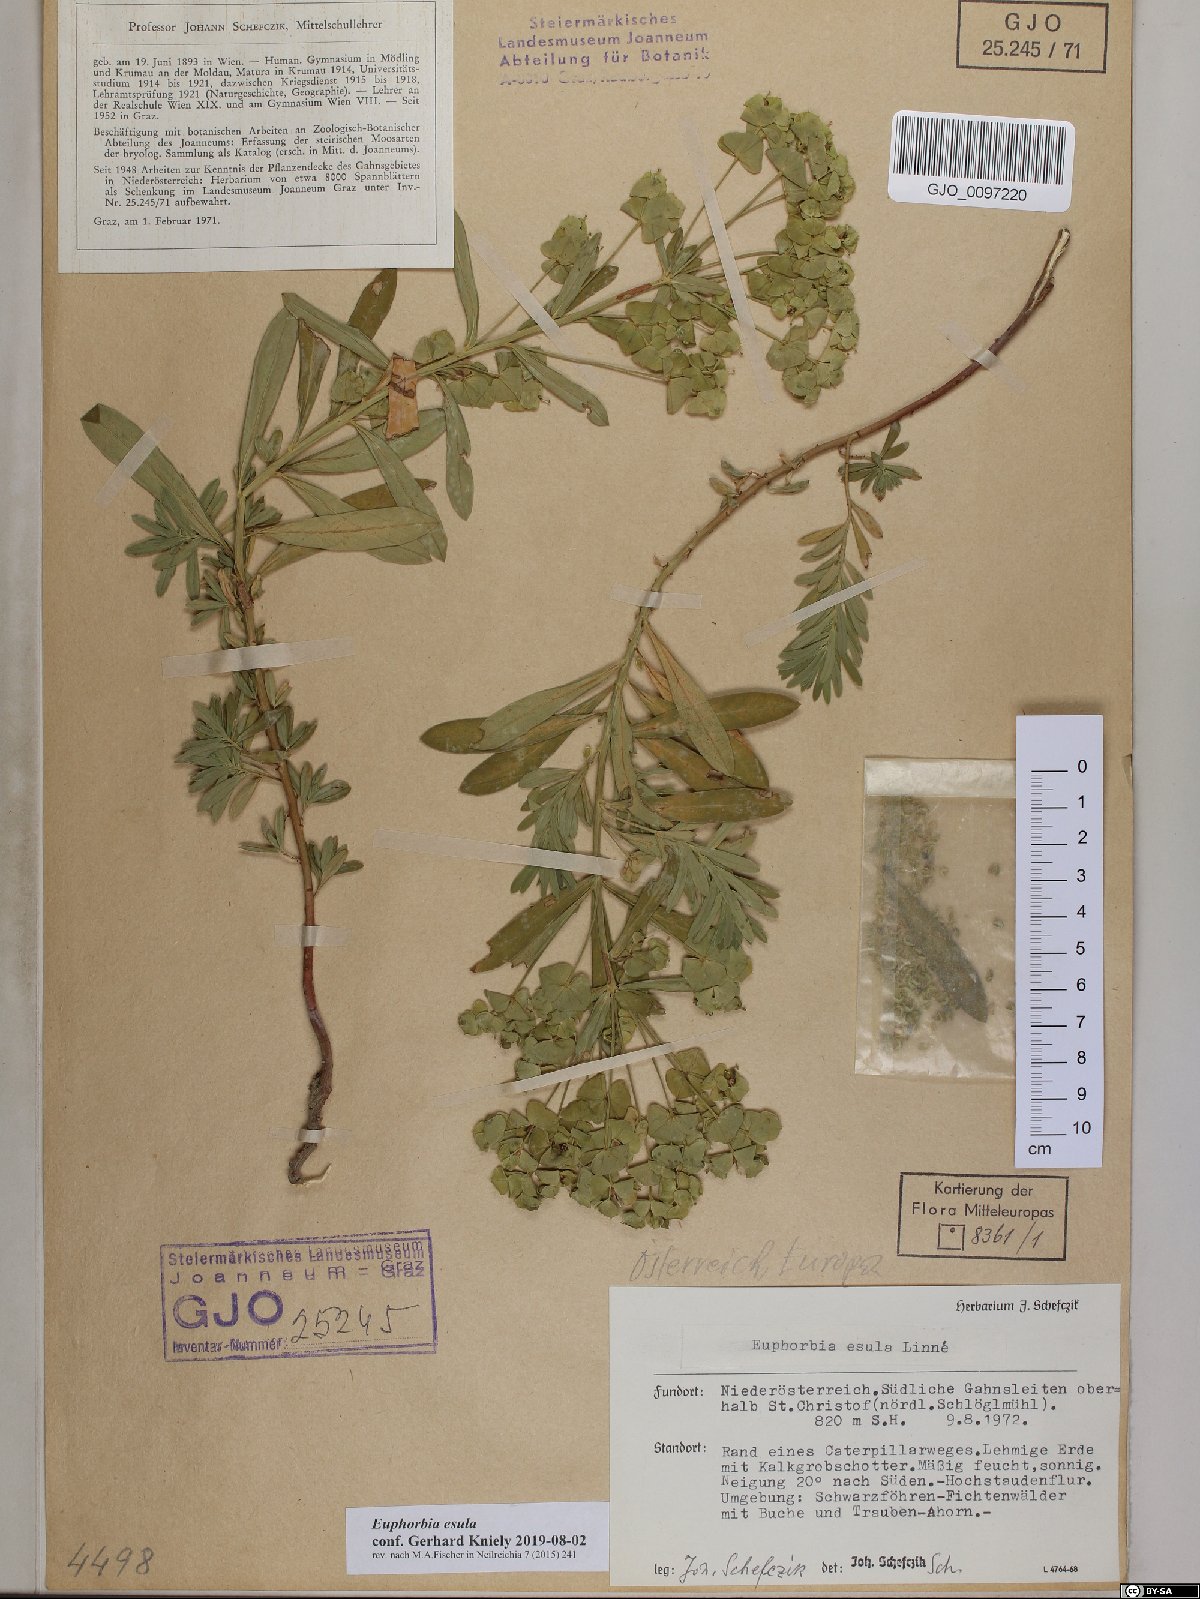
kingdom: Plantae
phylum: Tracheophyta
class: Magnoliopsida
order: Malpighiales
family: Euphorbiaceae
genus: Euphorbia
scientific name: Euphorbia esula
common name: Leafy spurge
